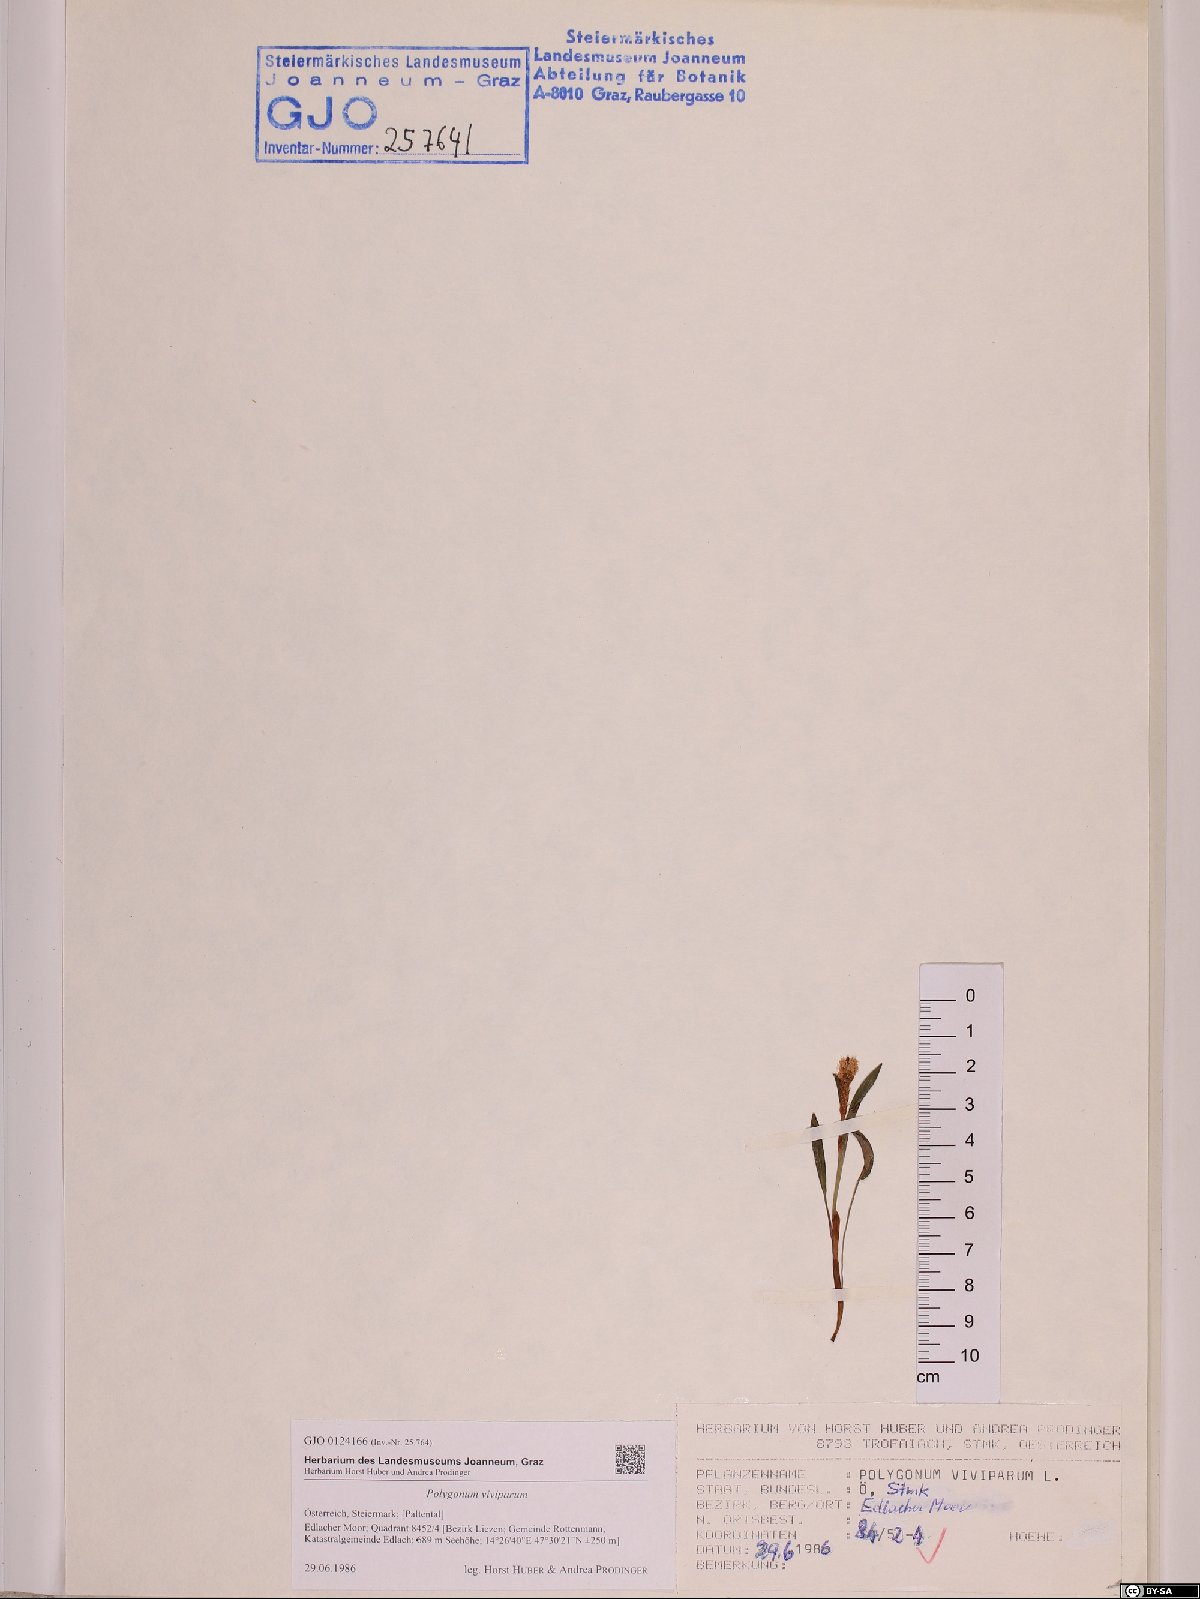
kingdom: Plantae
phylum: Tracheophyta
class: Magnoliopsida
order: Caryophyllales
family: Polygonaceae
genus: Bistorta
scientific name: Bistorta vivipara
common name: Alpine bistort
